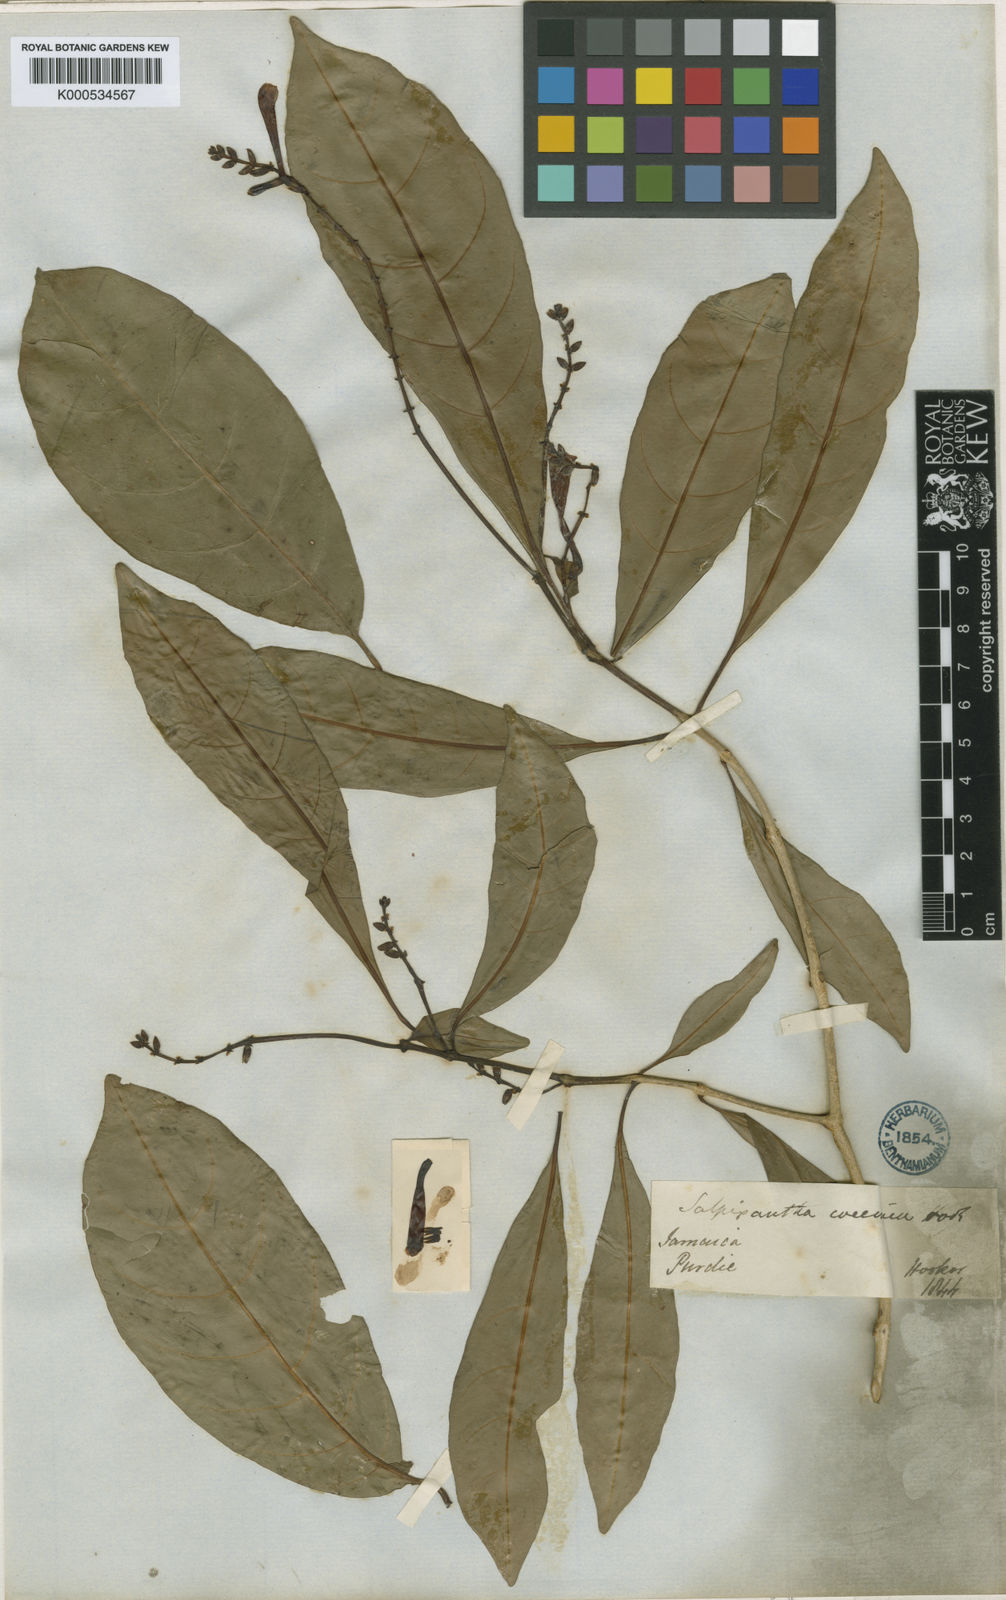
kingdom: Plantae
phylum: Tracheophyta
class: Magnoliopsida
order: Lamiales
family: Acanthaceae
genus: Salpixantha
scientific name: Salpixantha coccinea
